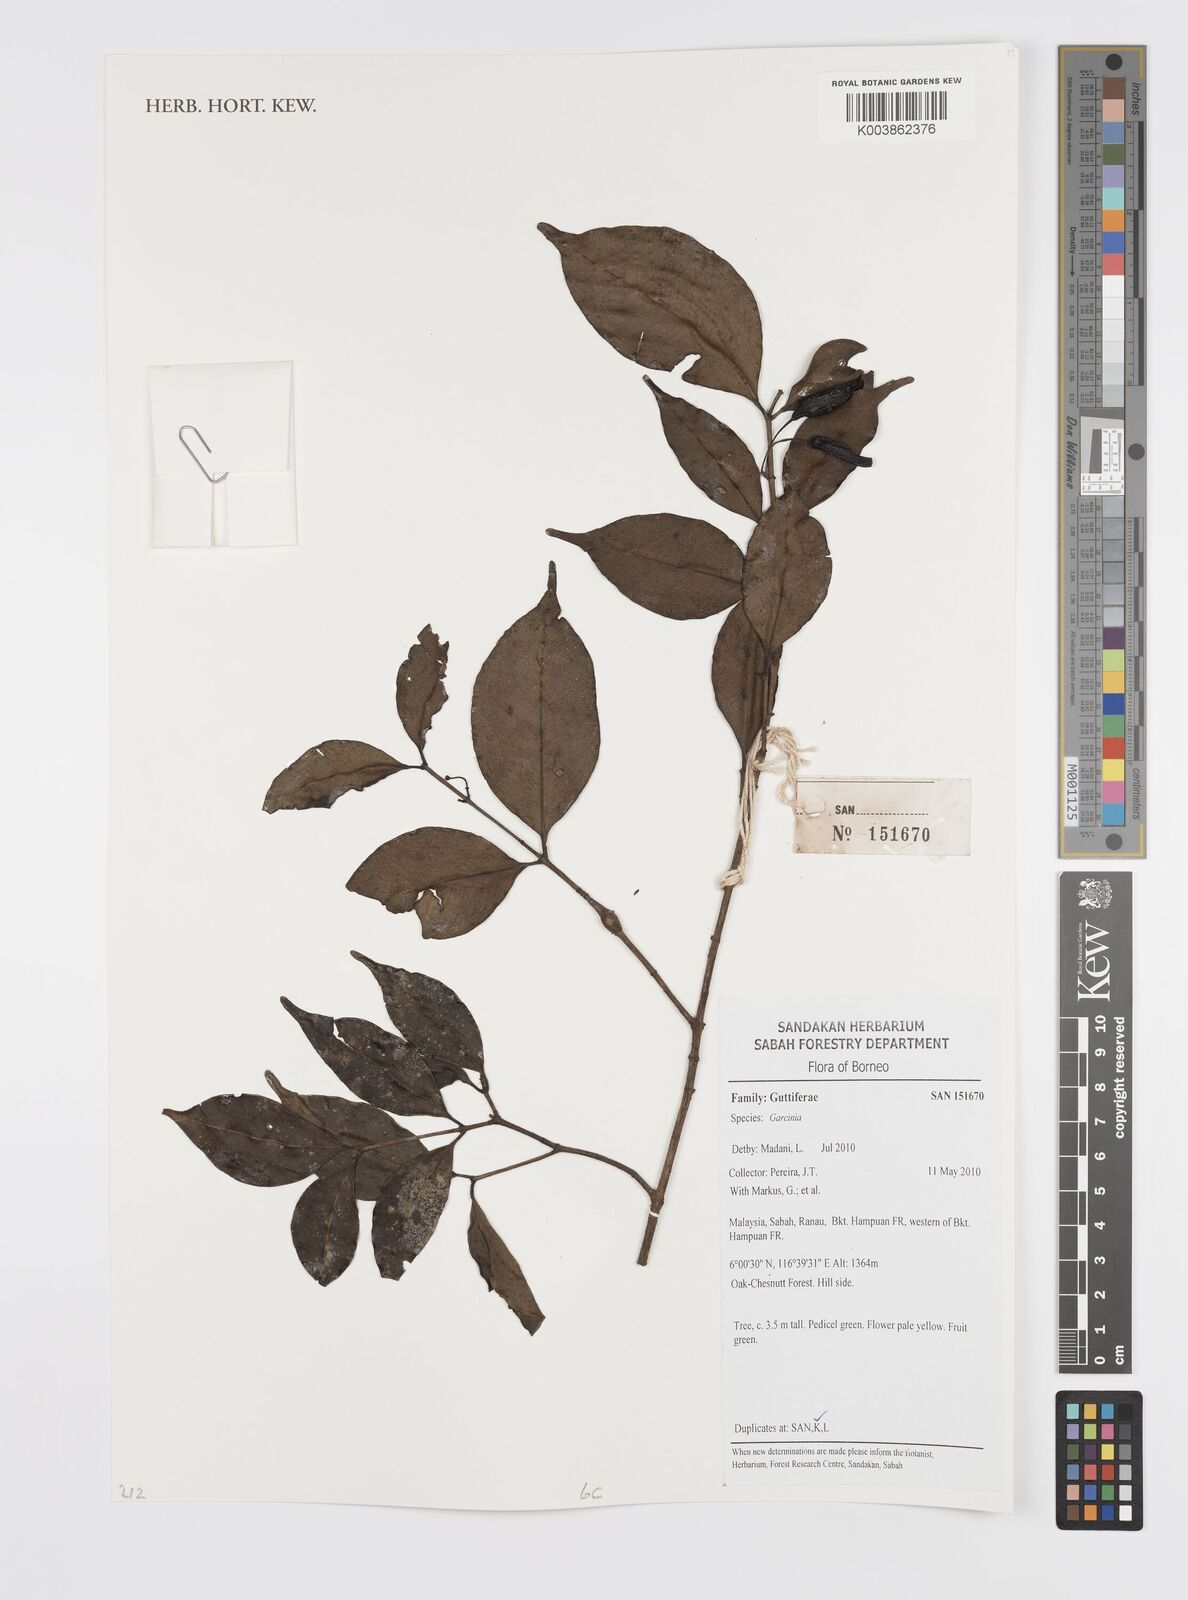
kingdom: Plantae
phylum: Tracheophyta
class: Magnoliopsida
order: Malpighiales
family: Clusiaceae
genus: Garcinia
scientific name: Garcinia
